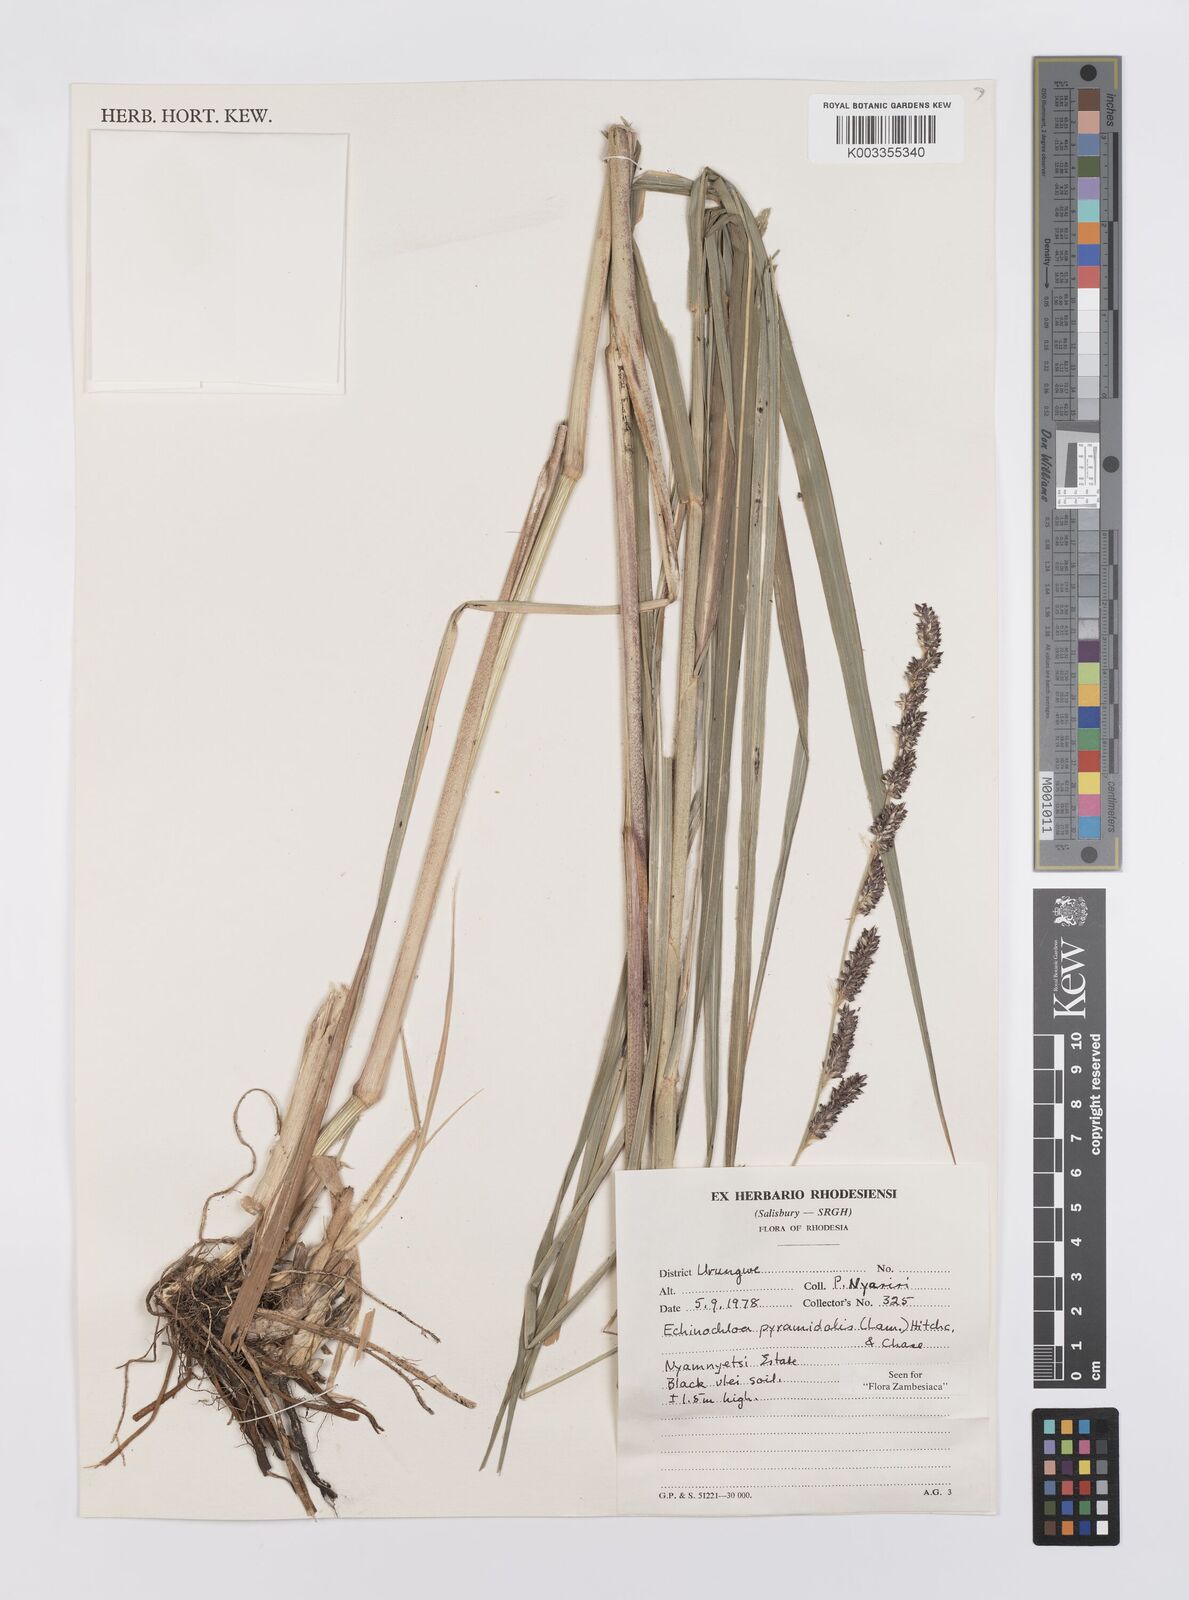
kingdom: Plantae
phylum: Tracheophyta
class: Liliopsida
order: Poales
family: Poaceae
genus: Echinochloa
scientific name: Echinochloa pyramidalis
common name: Antelope grass
